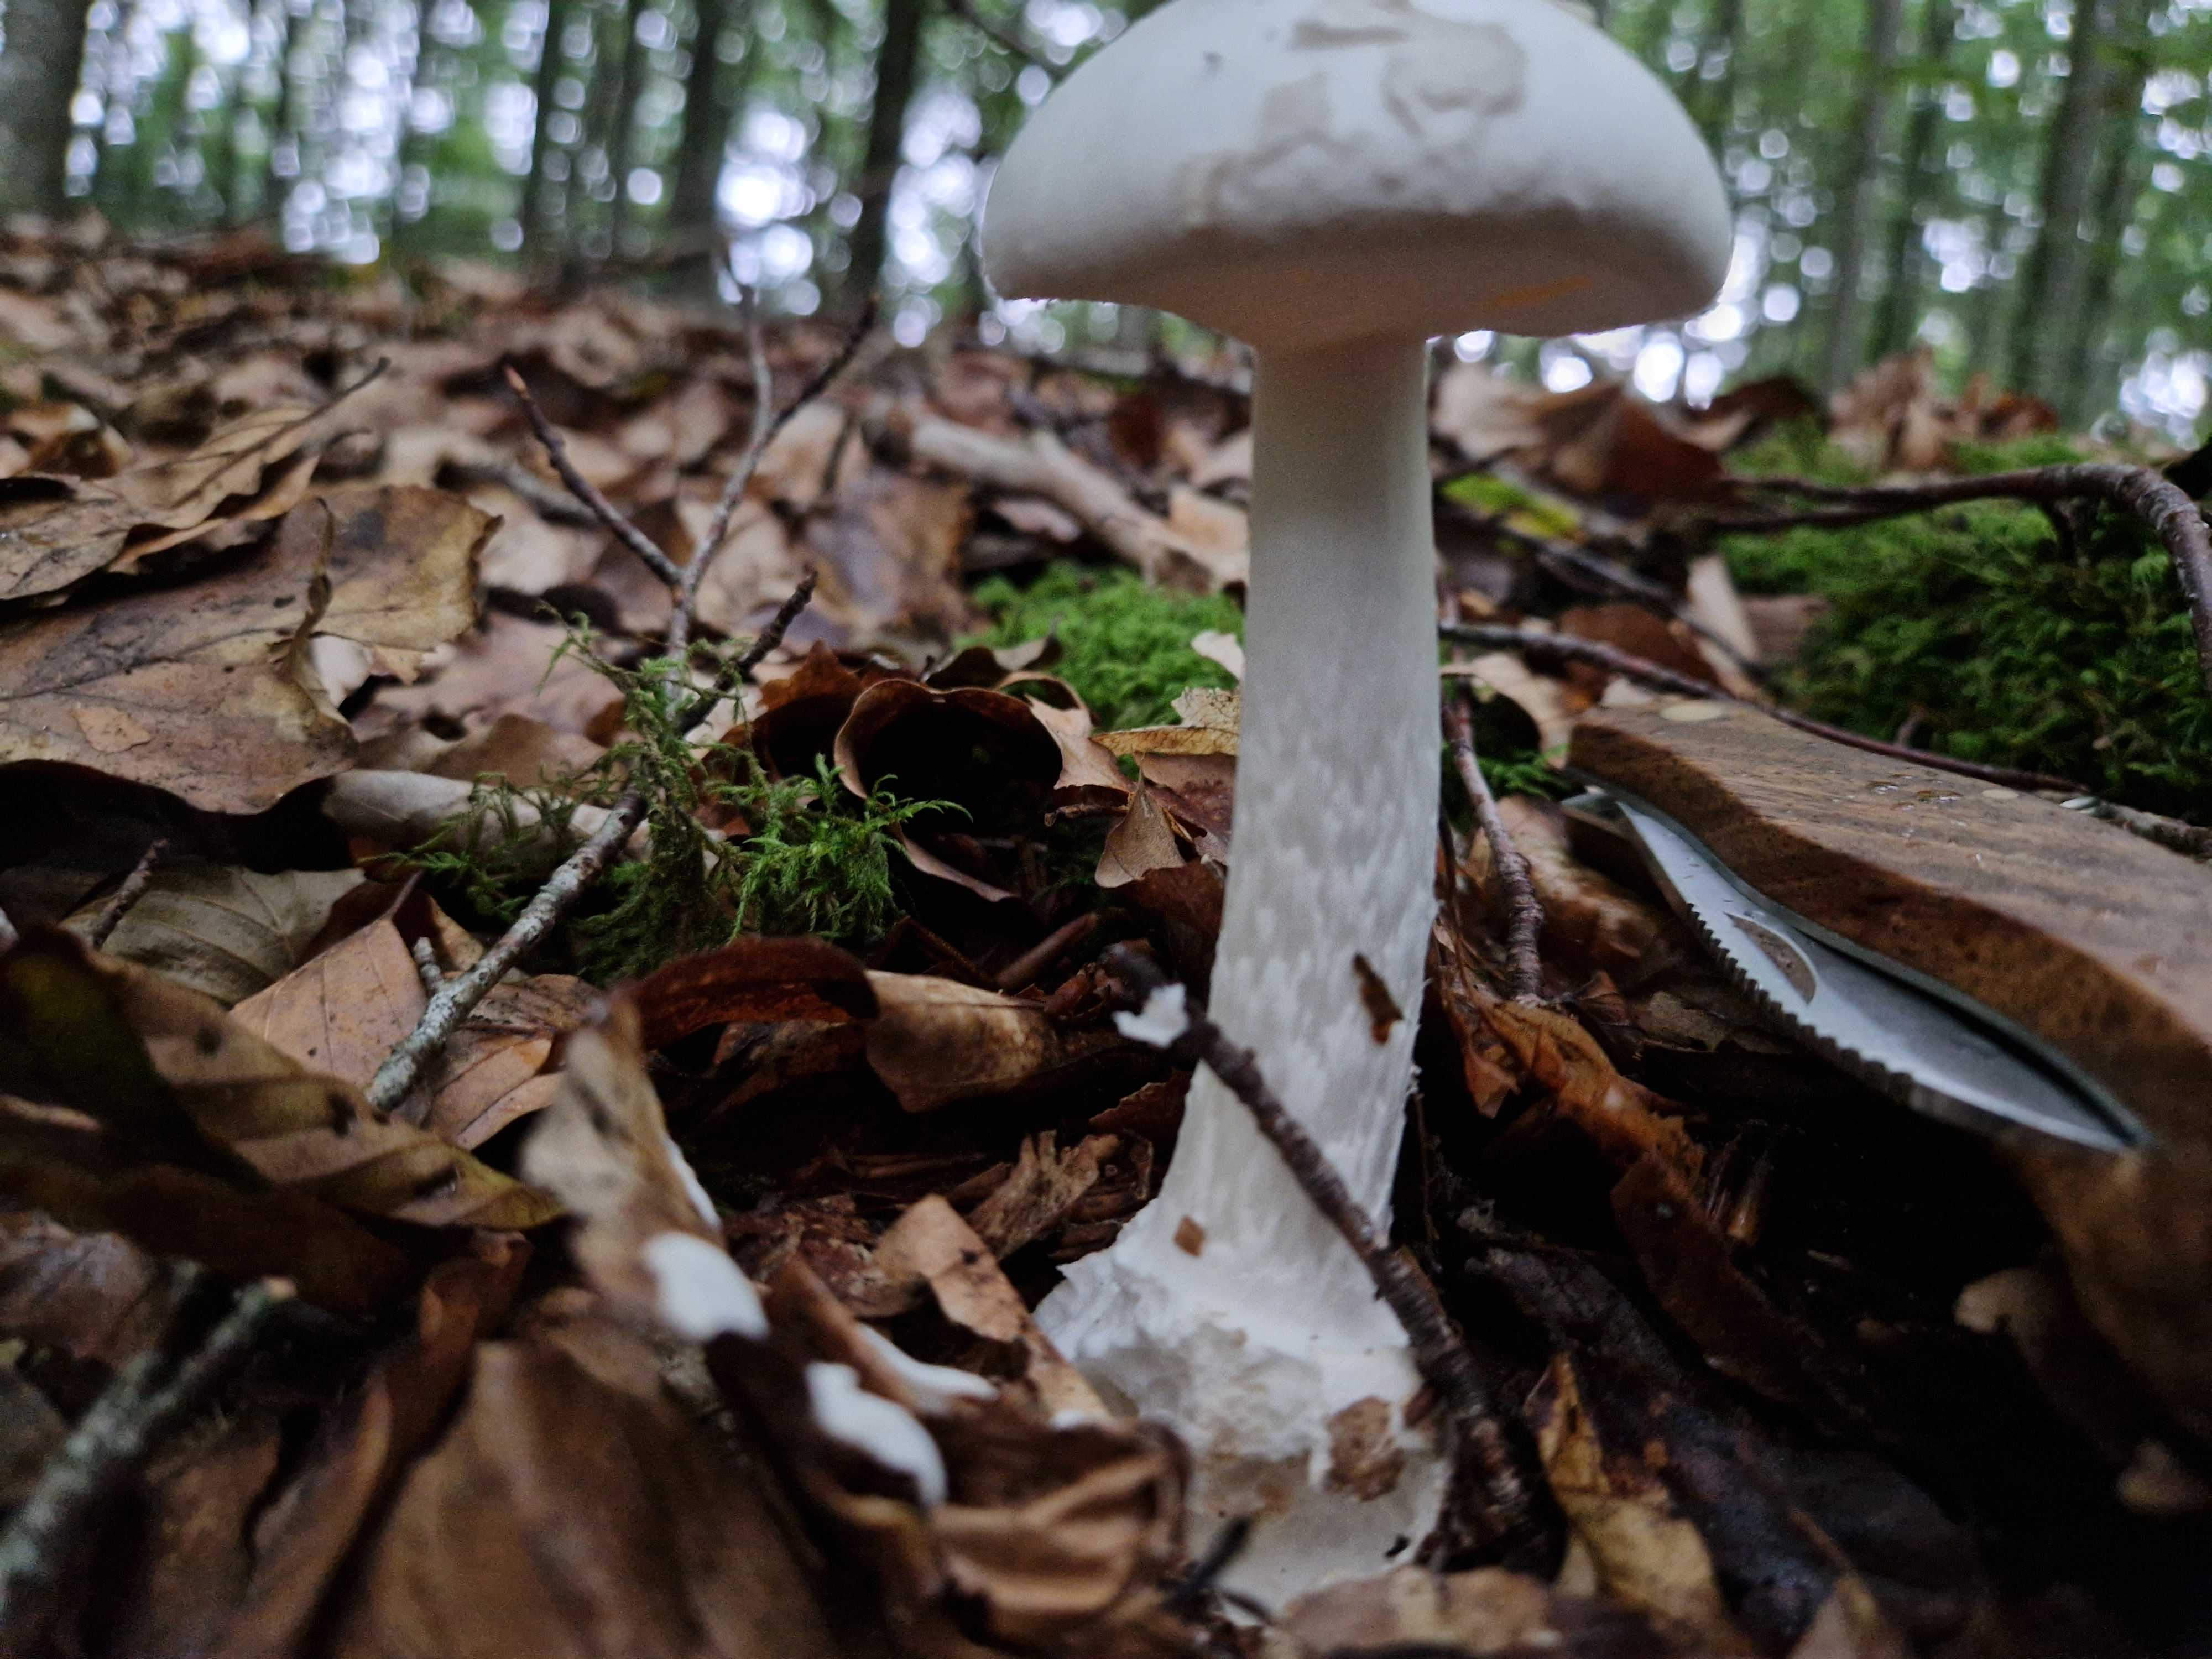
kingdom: Fungi
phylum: Basidiomycota
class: Agaricomycetes
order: Agaricales
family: Amanitaceae
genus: Amanita
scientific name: Amanita virosa
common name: snehvid fluesvamp
